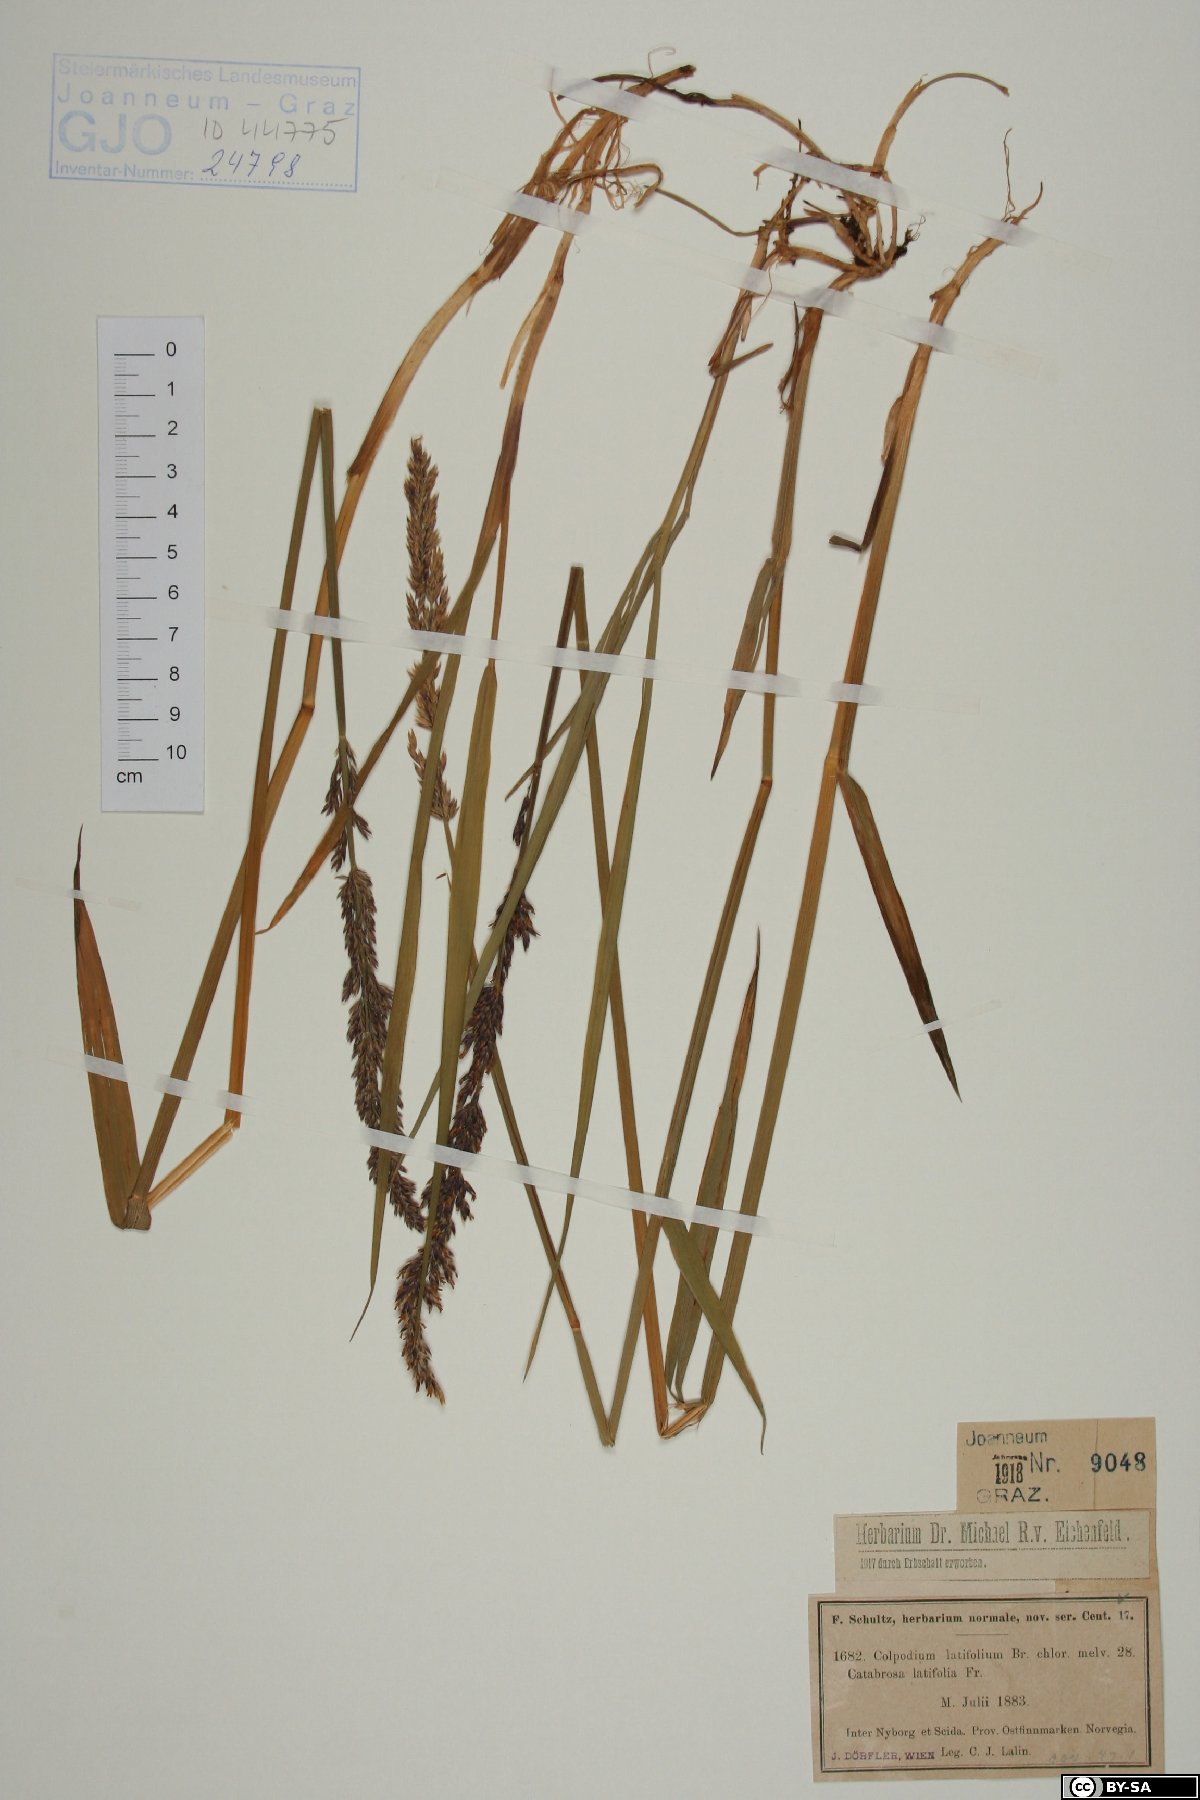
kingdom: Plantae
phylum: Tracheophyta
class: Liliopsida
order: Poales
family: Poaceae
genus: Arctagrostis
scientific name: Arctagrostis latifolia
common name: Arctic grass
